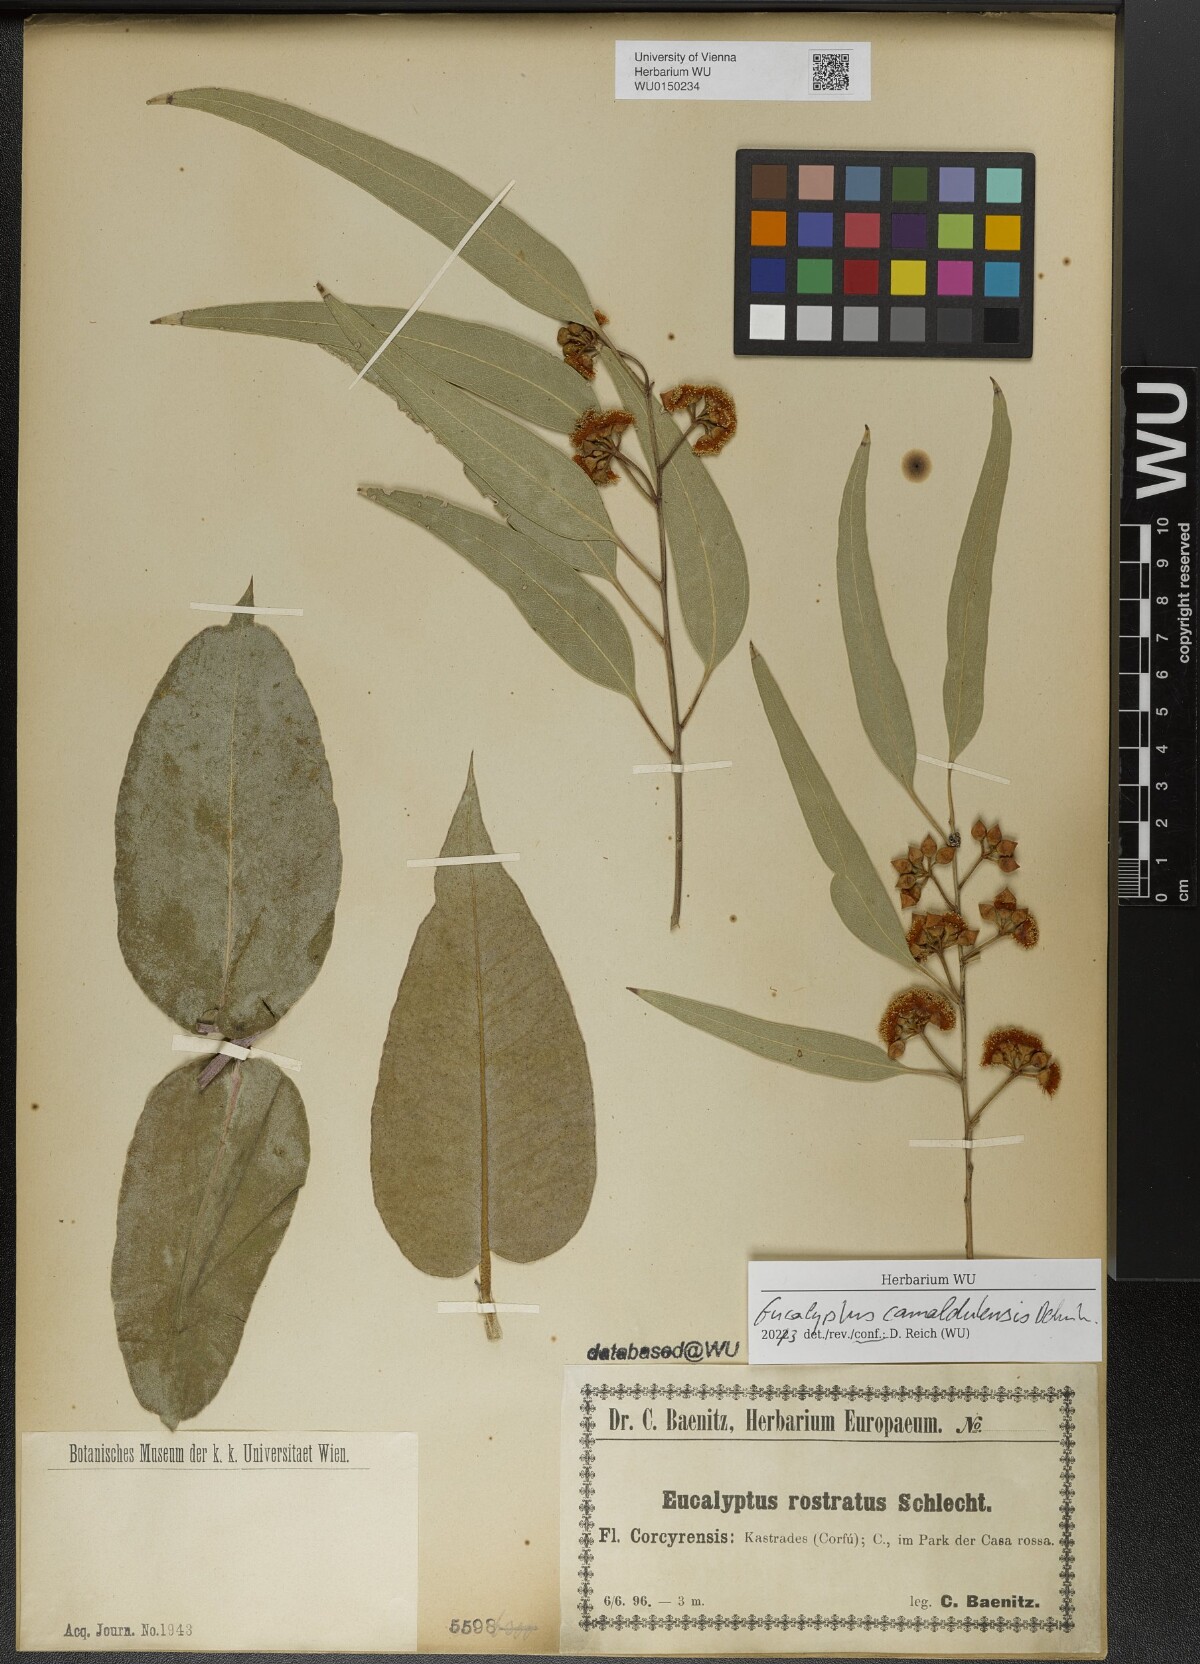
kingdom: Plantae
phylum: Tracheophyta
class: Magnoliopsida
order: Myrtales
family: Myrtaceae
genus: Eucalyptus
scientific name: Eucalyptus camaldulensis
